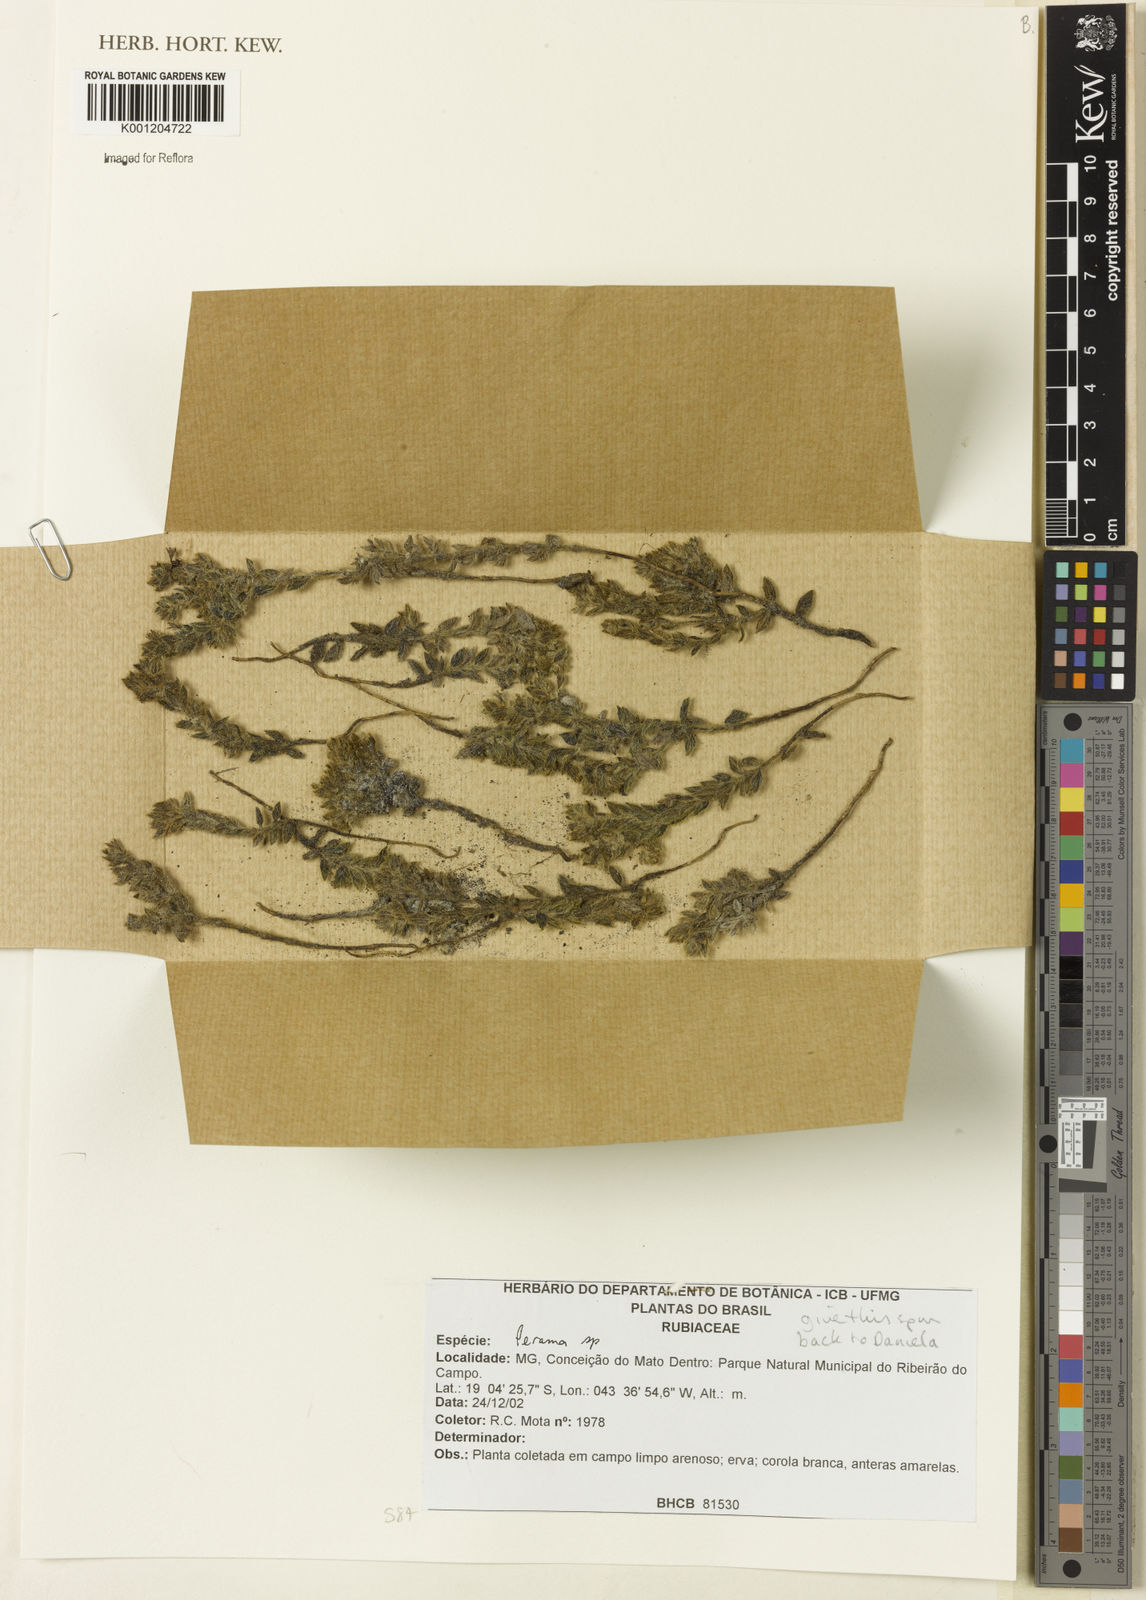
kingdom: Plantae
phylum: Tracheophyta
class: Magnoliopsida
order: Gentianales
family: Rubiaceae
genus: Perama
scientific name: Perama
